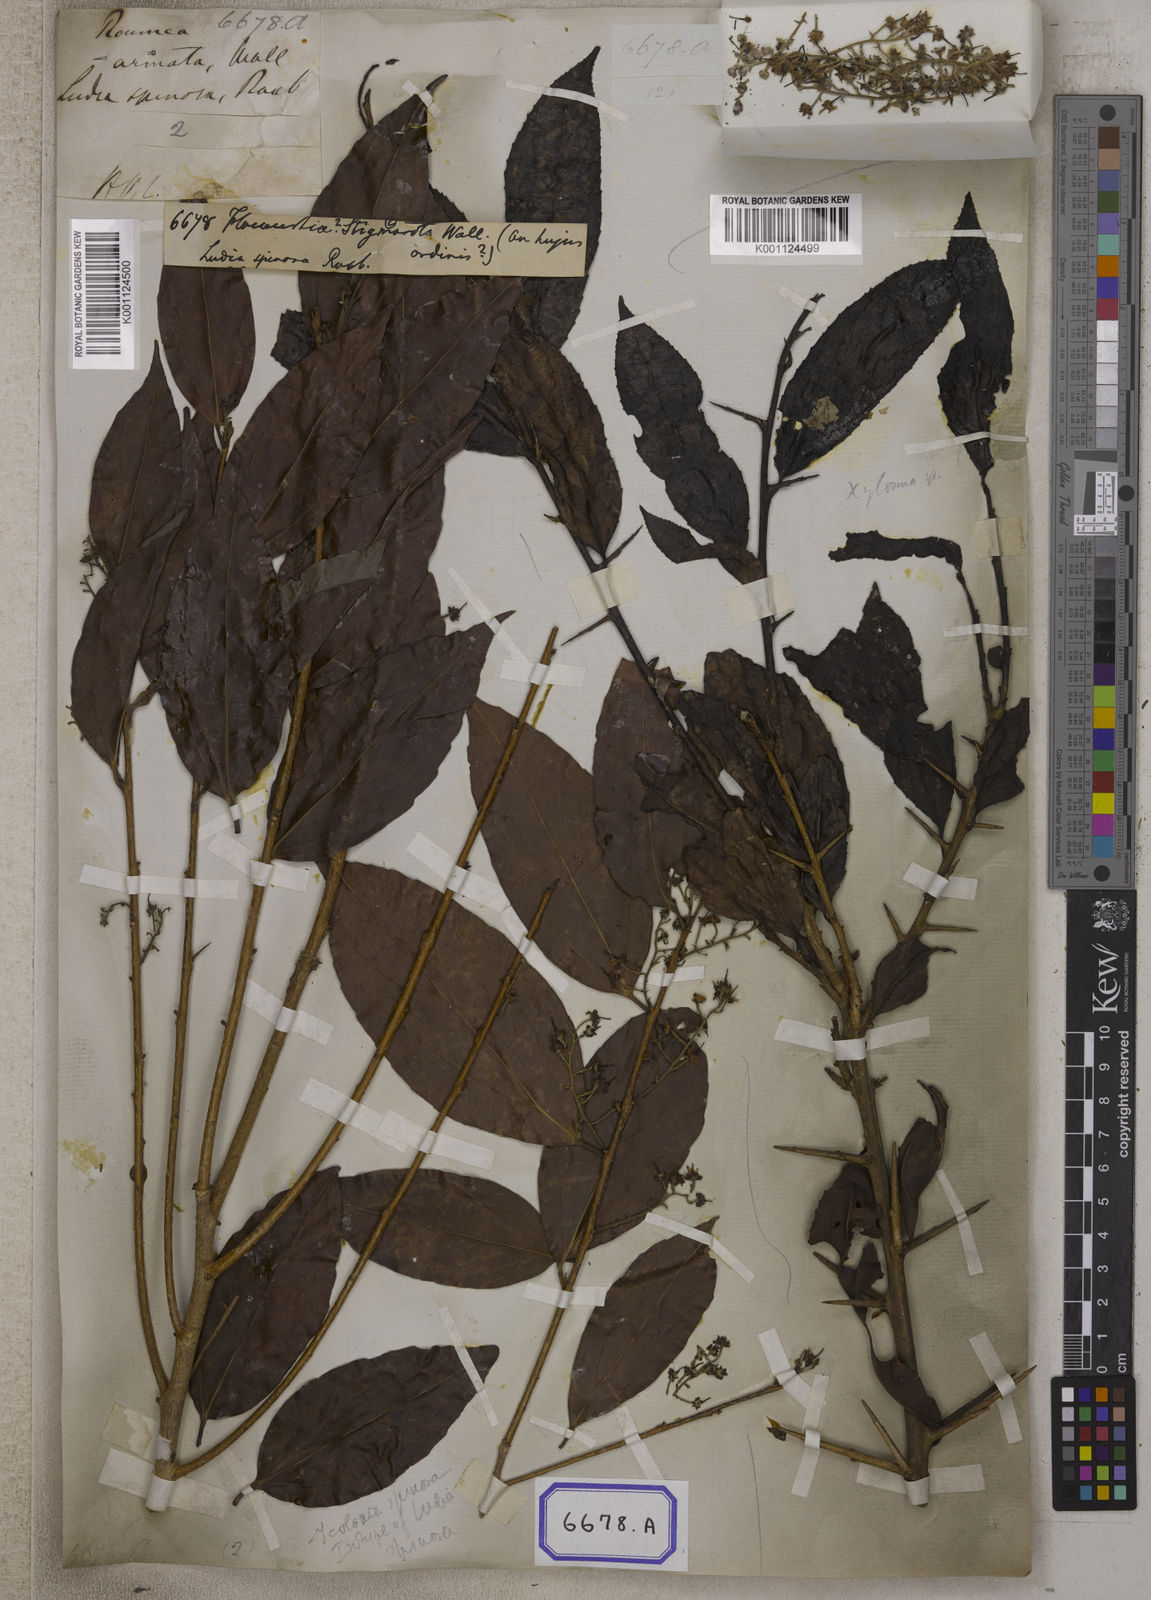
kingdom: Plantae
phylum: Tracheophyta
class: Magnoliopsida
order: Malpighiales
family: Salicaceae
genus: Flacourtia
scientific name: Flacourtia
